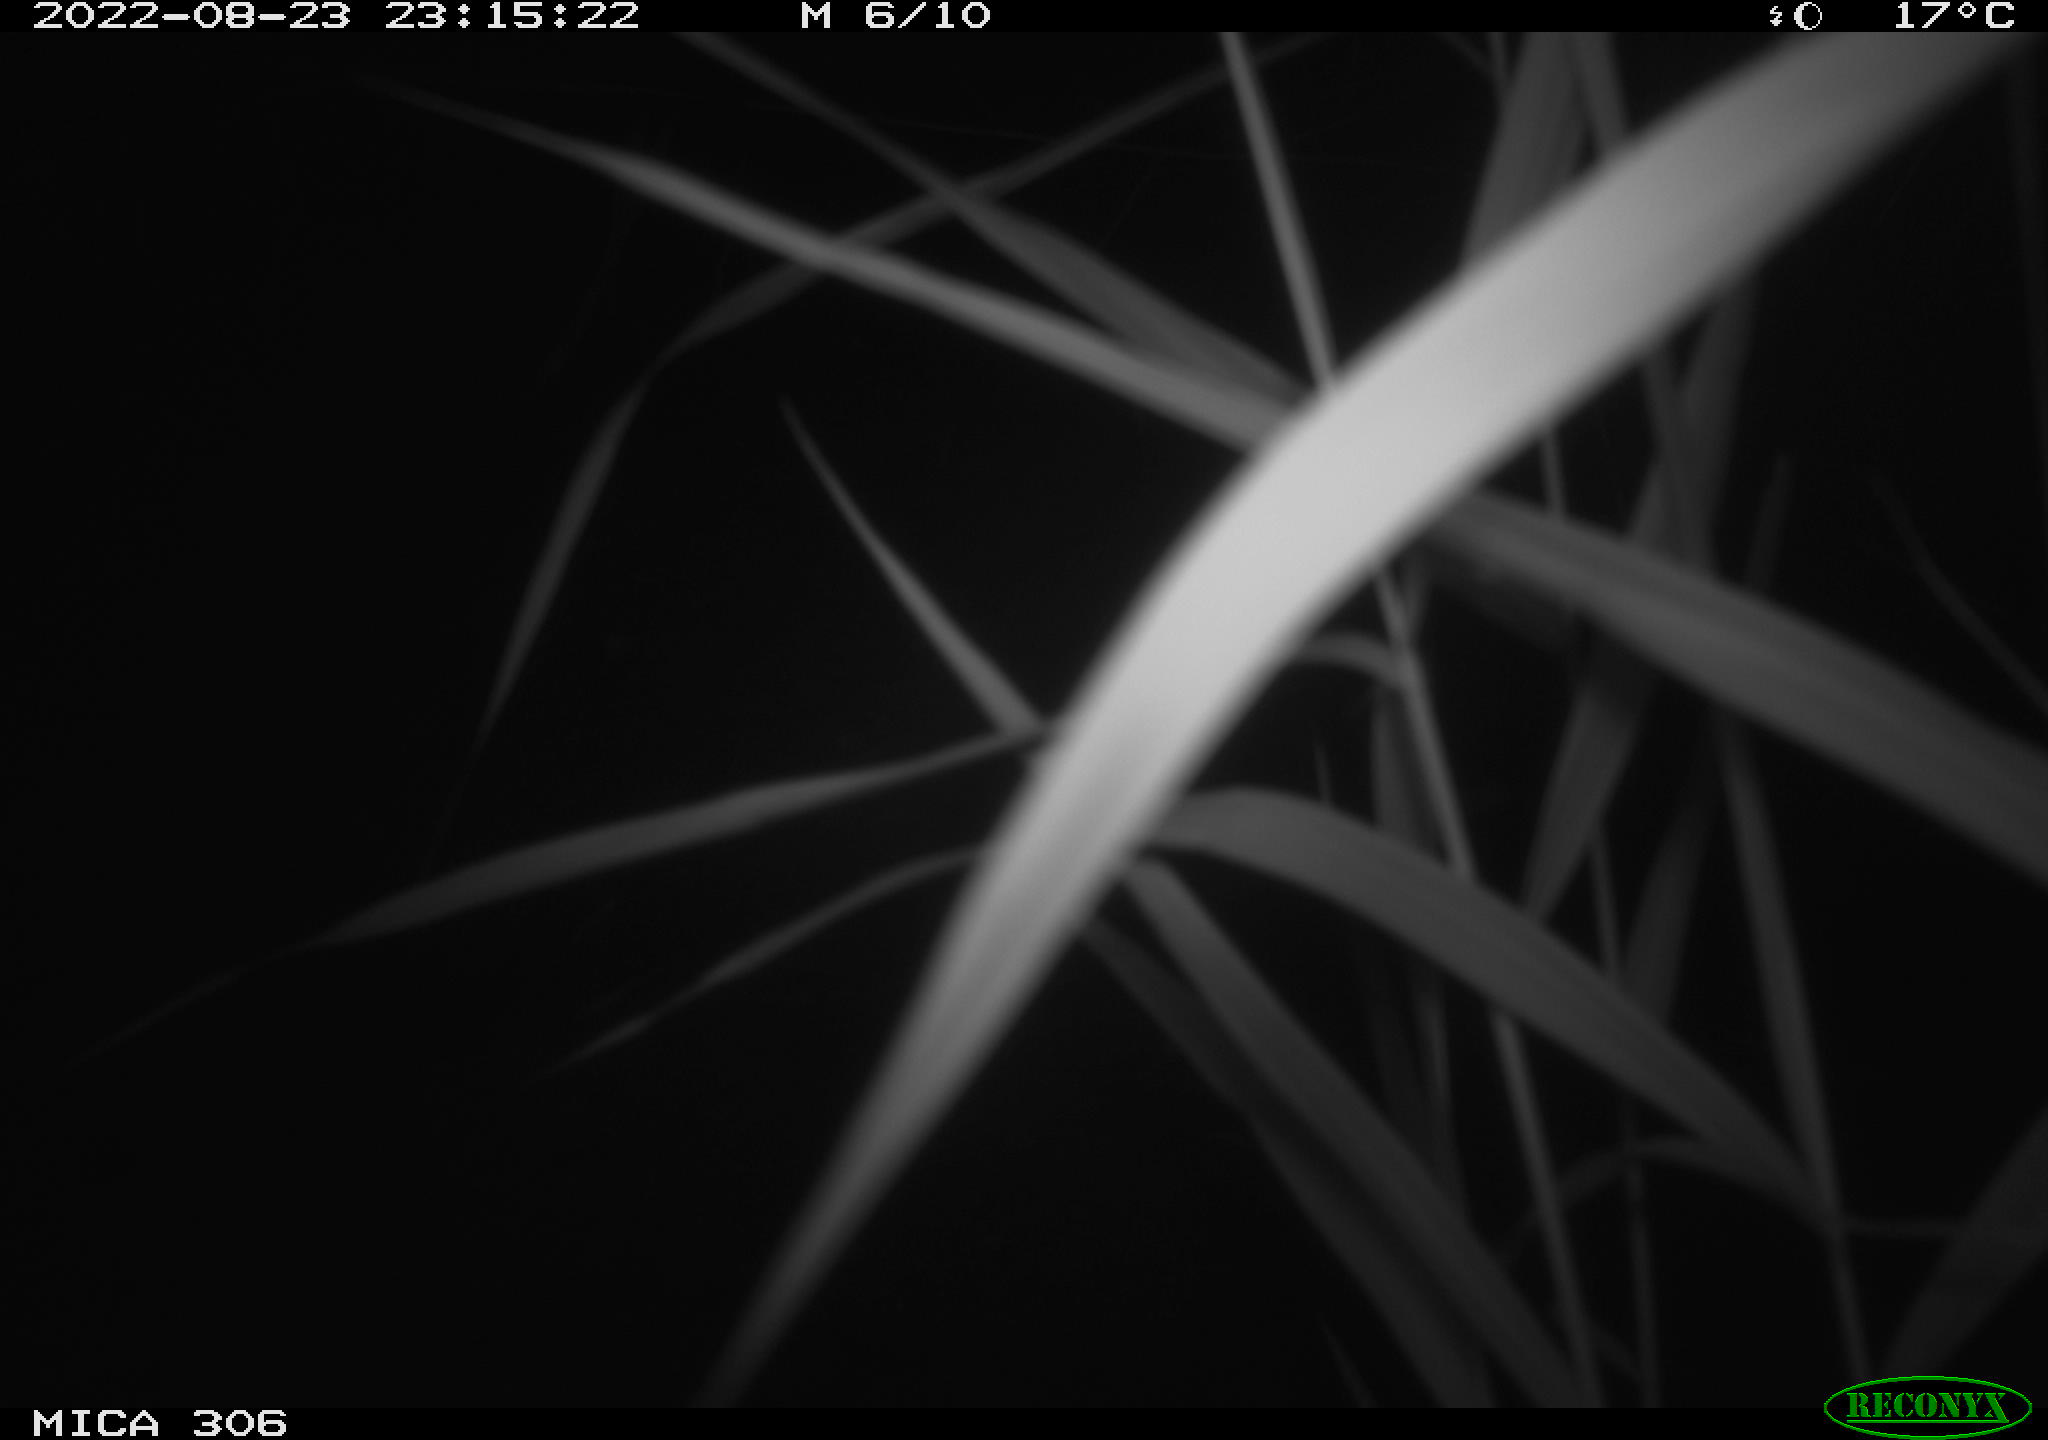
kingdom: Animalia
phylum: Chordata
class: Mammalia
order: Rodentia
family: Muridae
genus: Rattus
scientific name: Rattus norvegicus
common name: Brown rat
